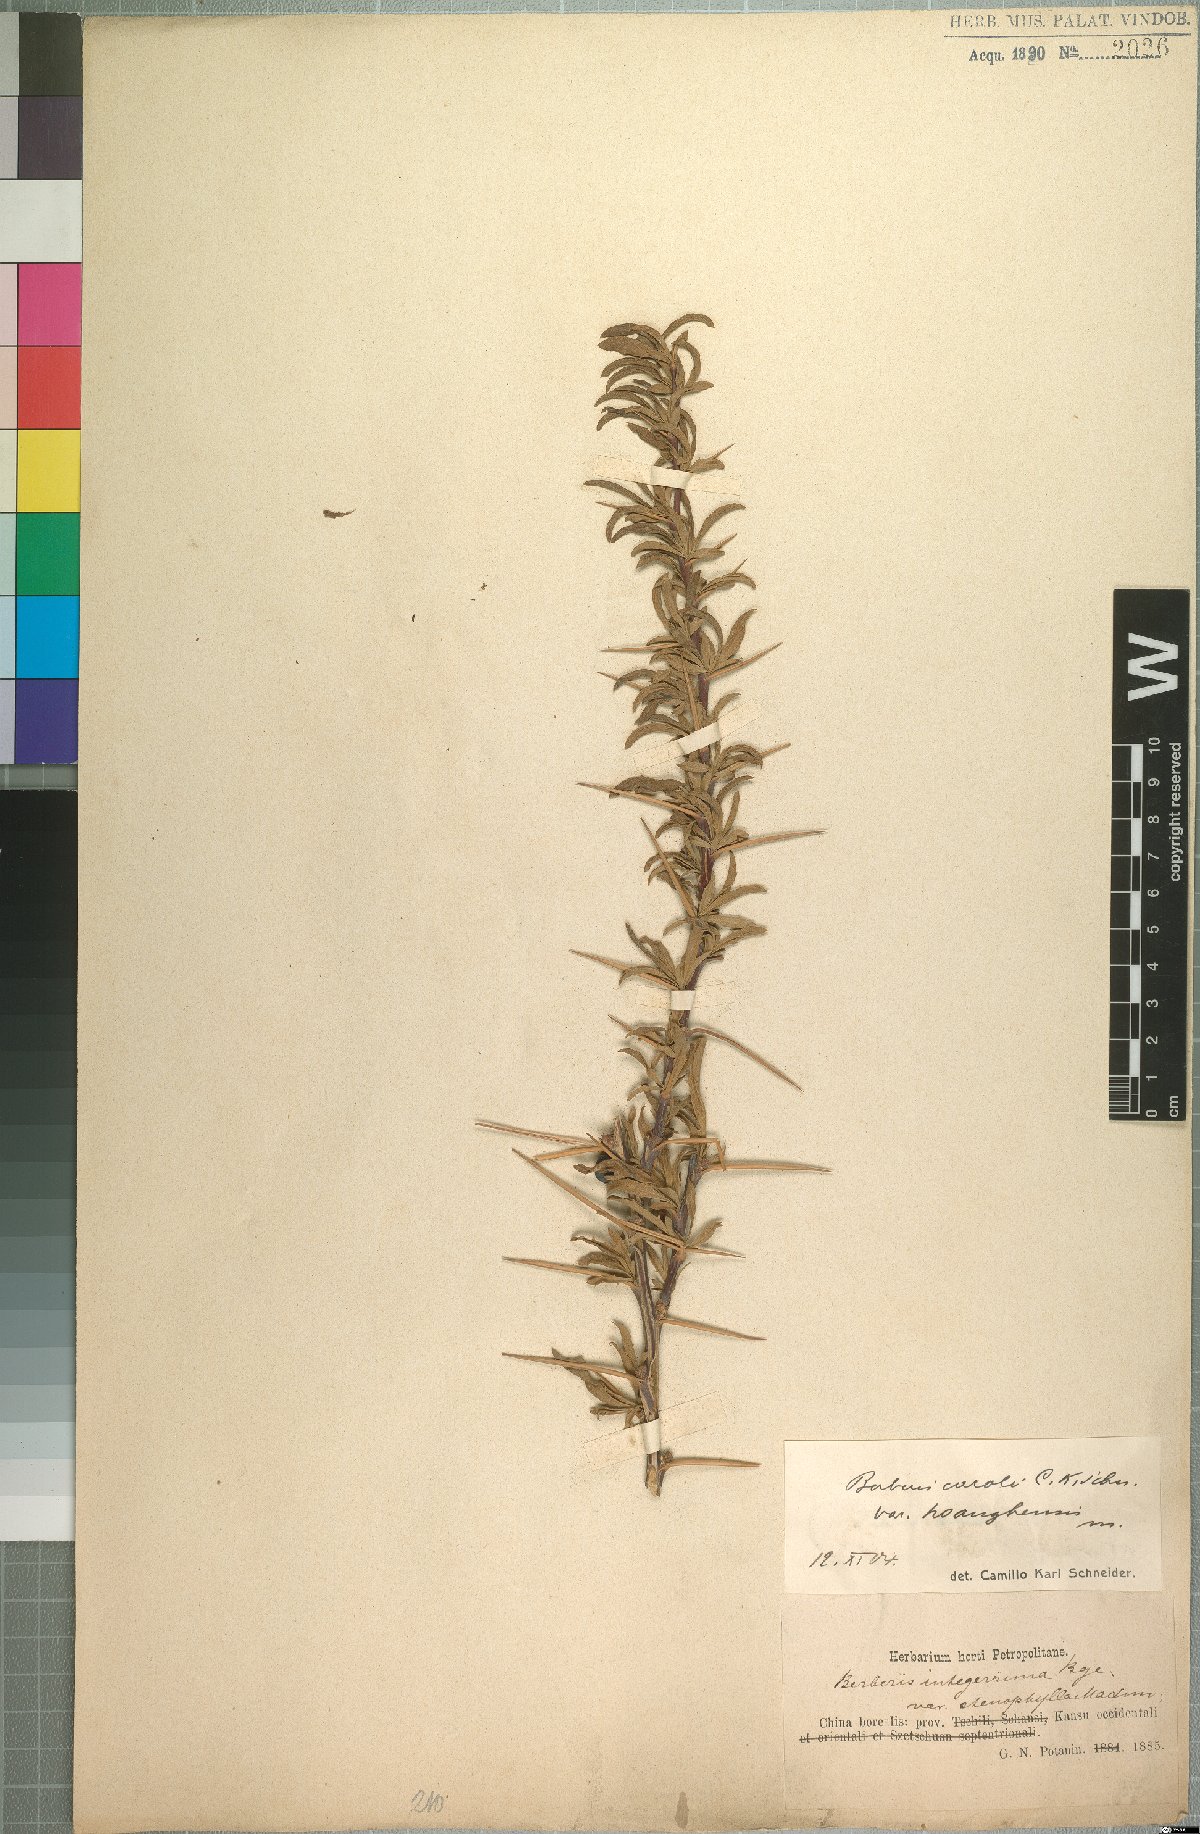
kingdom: Plantae
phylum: Tracheophyta
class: Magnoliopsida
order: Ranunculales
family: Berberidaceae
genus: Berberis
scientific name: Berberis caroli
